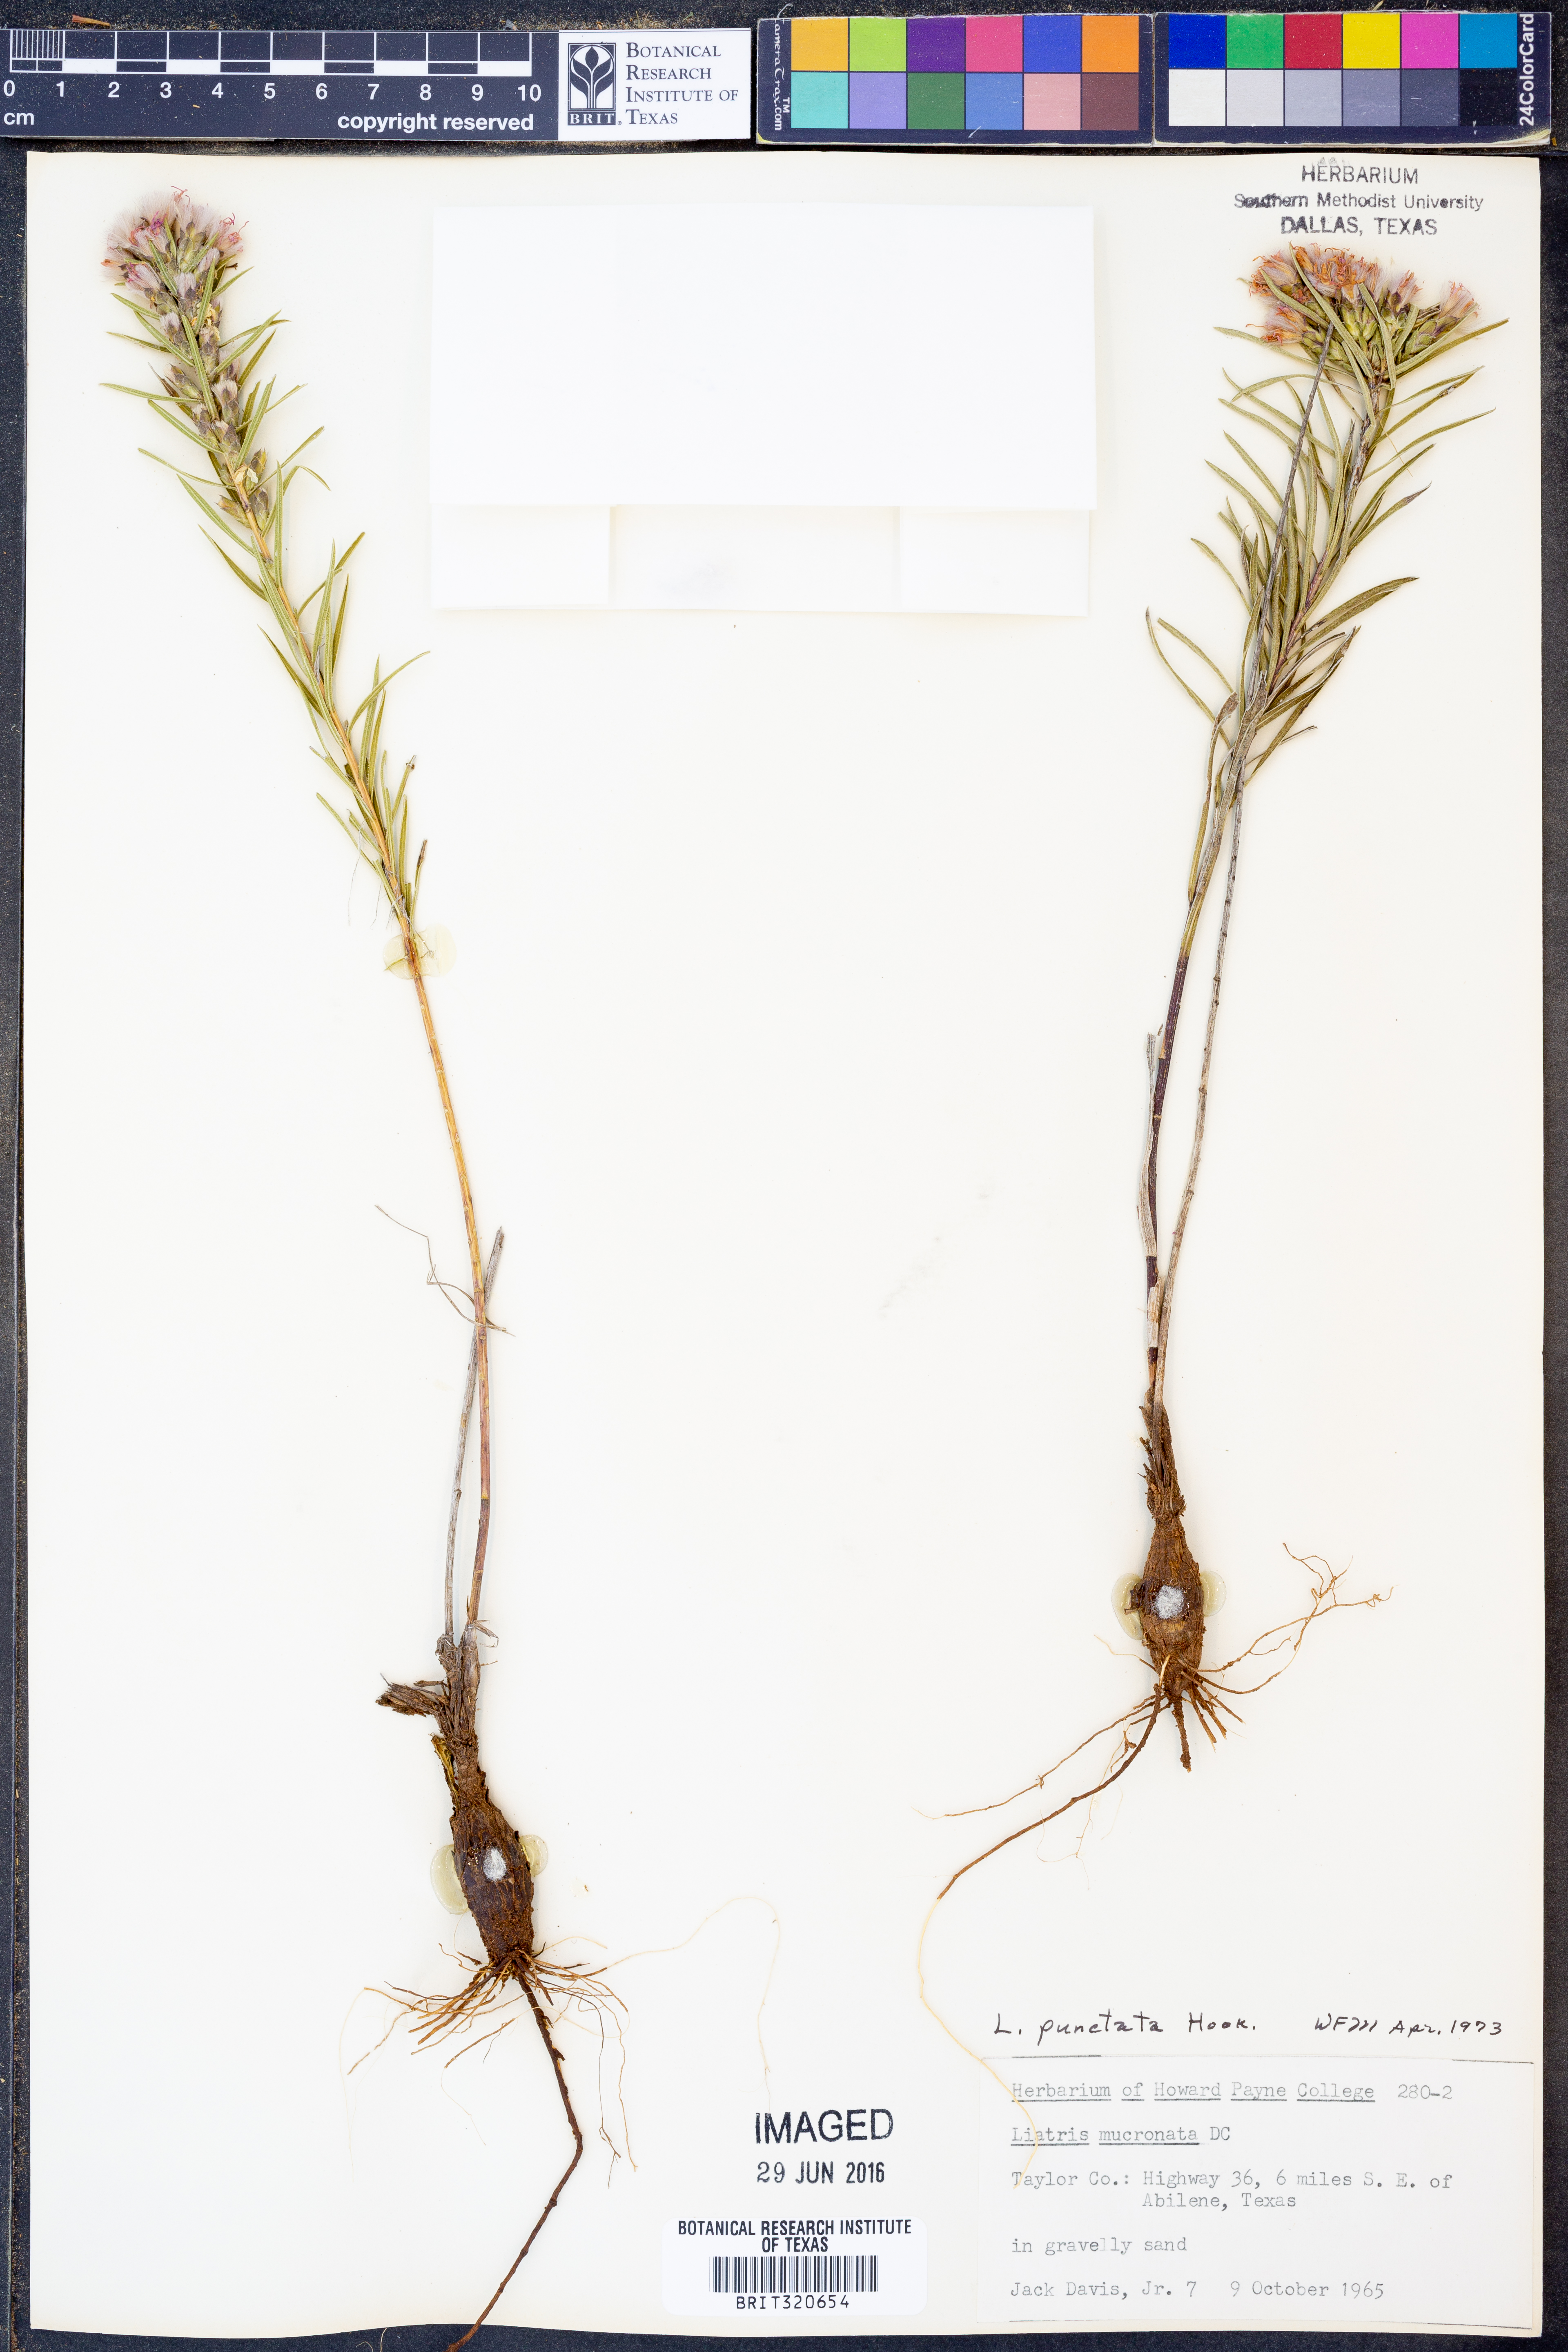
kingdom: Plantae
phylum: Tracheophyta
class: Magnoliopsida
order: Asterales
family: Asteraceae
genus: Liatris
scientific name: Liatris punctata
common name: Dotted gayfeather
